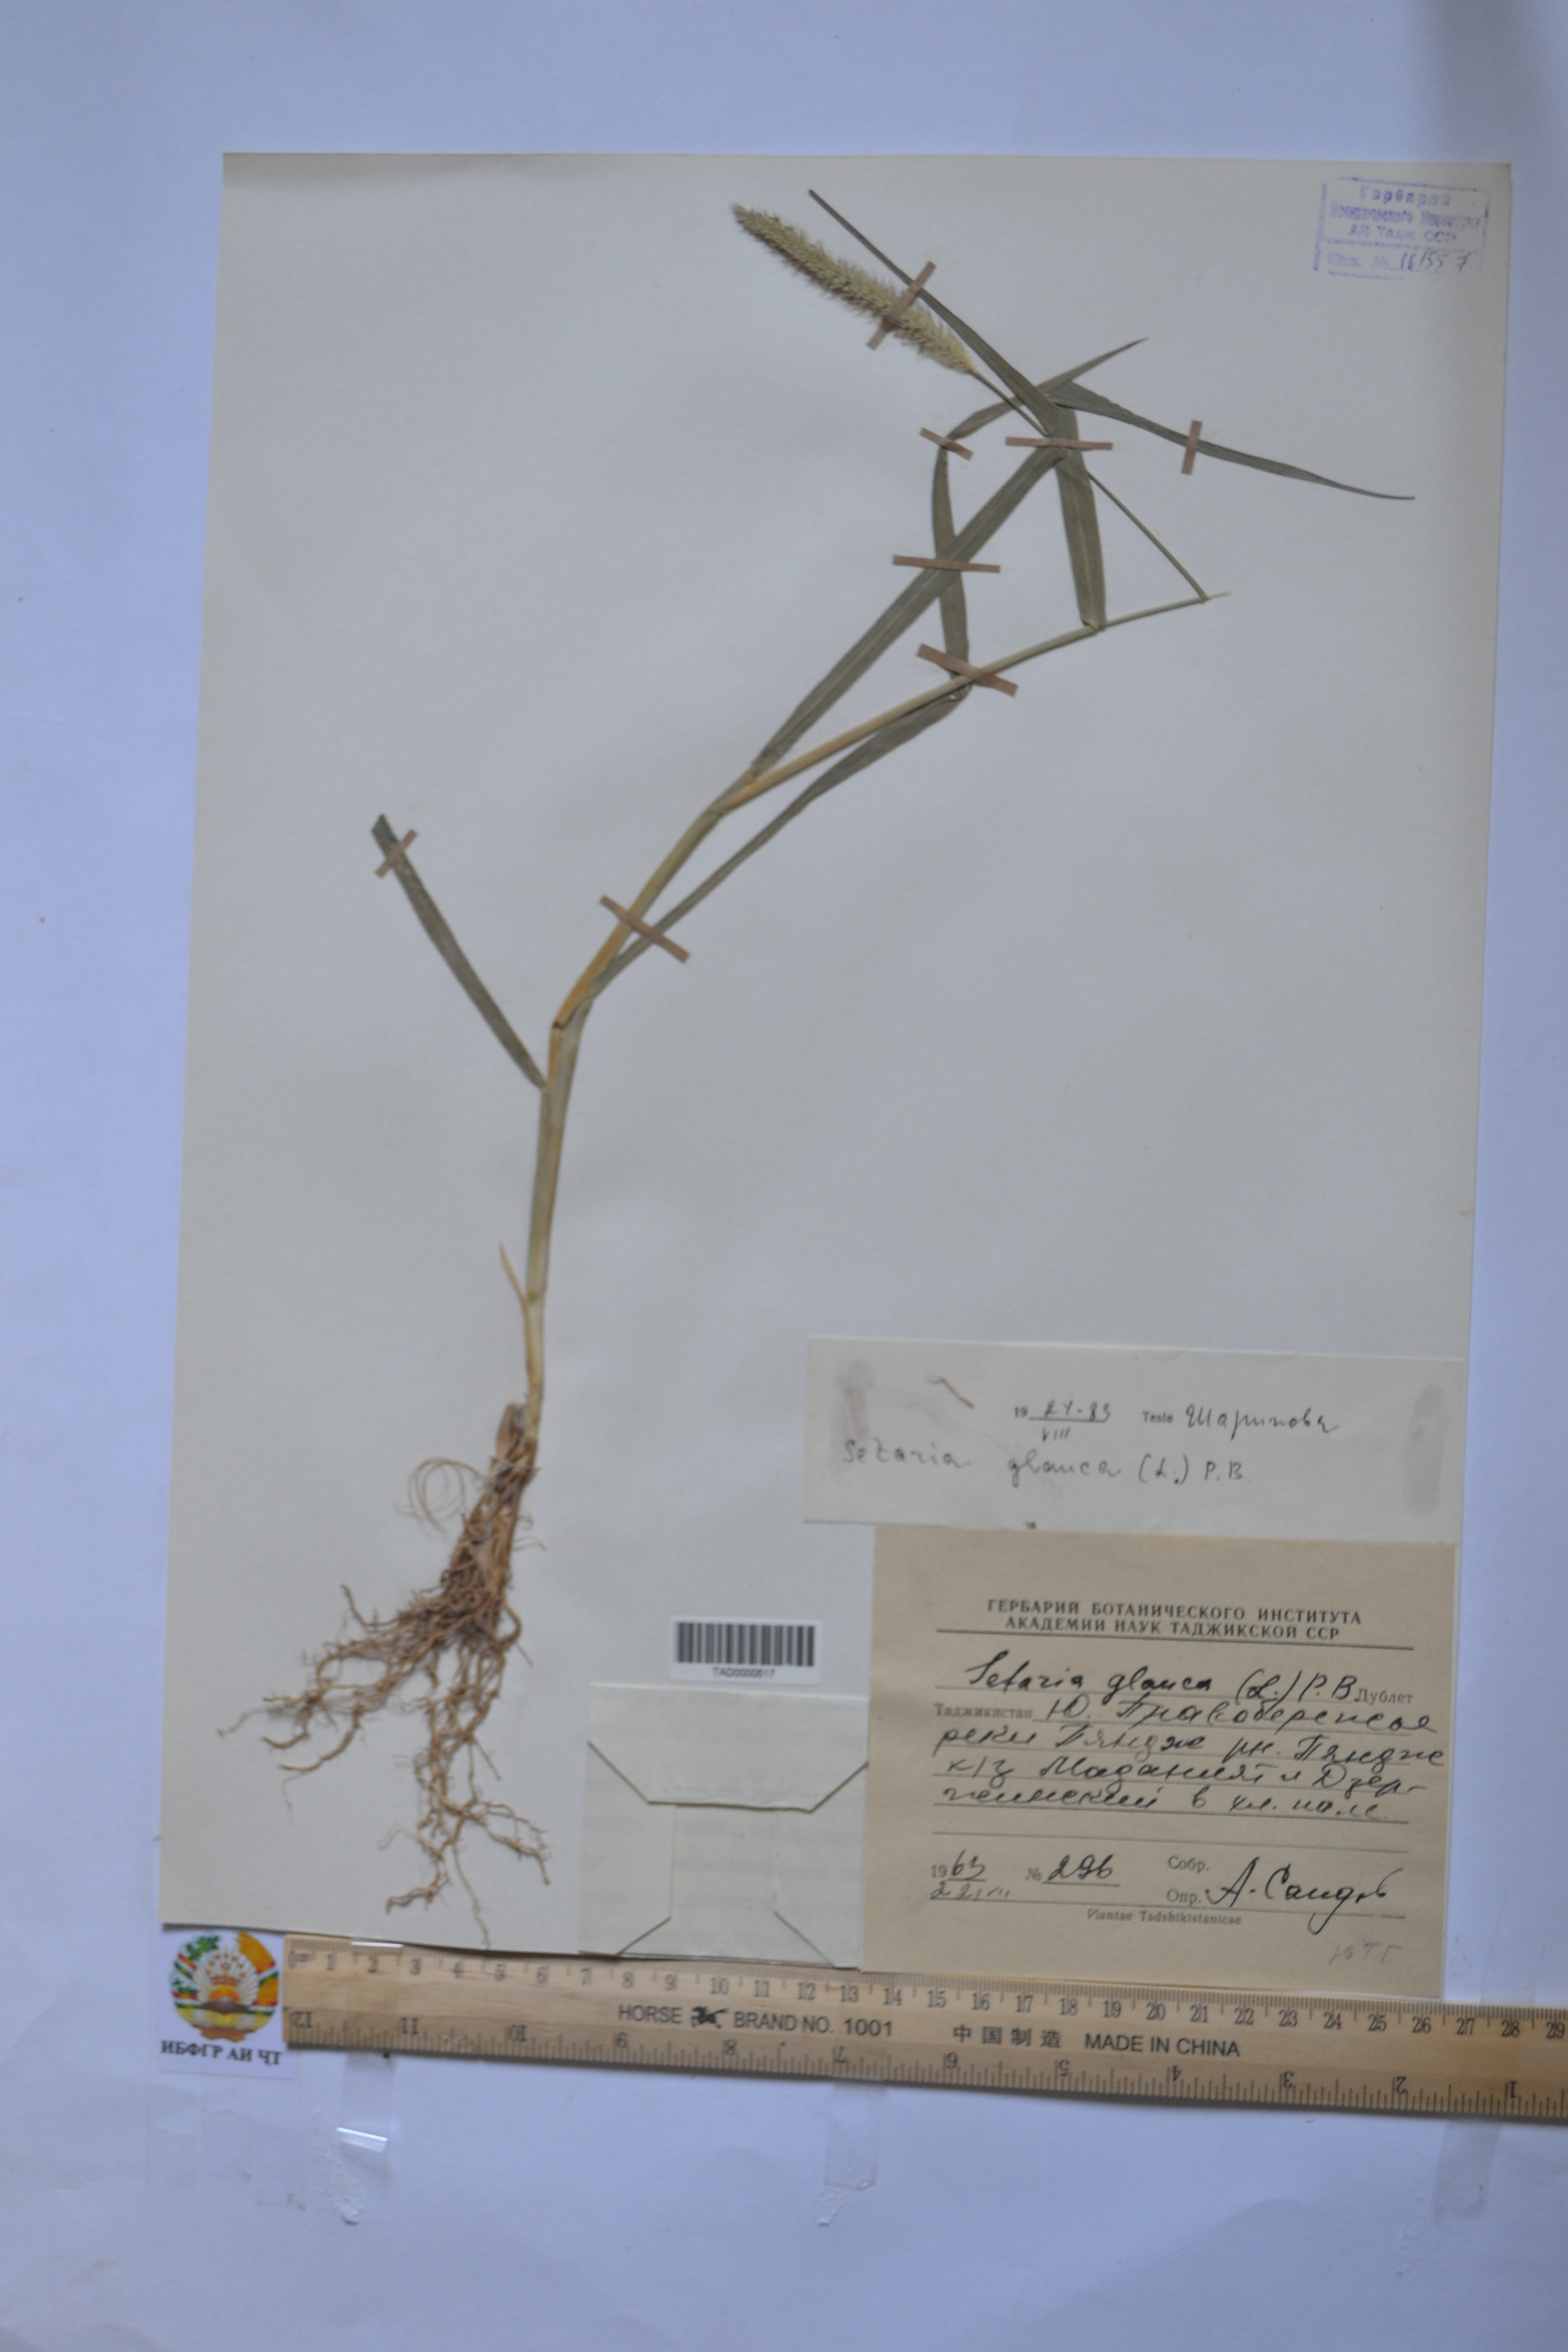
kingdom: Plantae
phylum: Tracheophyta
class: Liliopsida
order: Poales
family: Poaceae
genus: Cenchrus
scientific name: Cenchrus americanus
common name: Pearl millet
